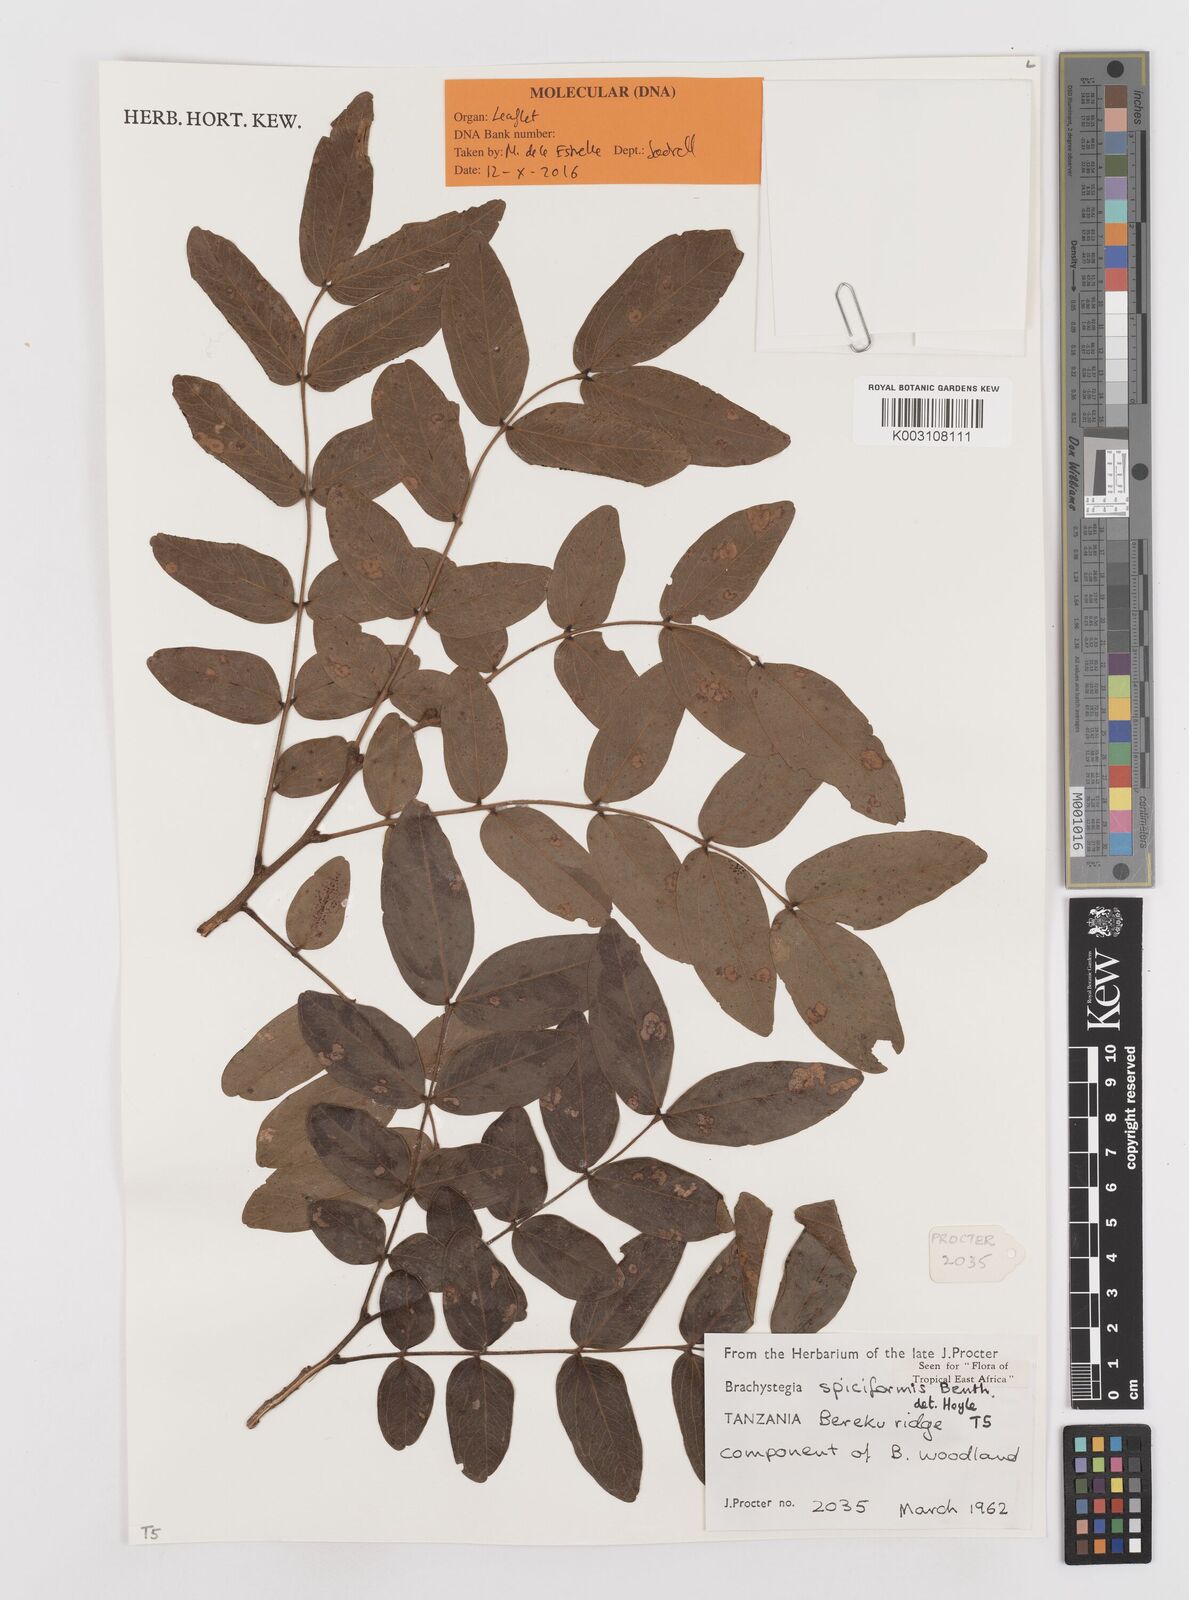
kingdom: Plantae
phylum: Tracheophyta
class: Magnoliopsida
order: Fabales
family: Fabaceae
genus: Brachystegia
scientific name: Brachystegia spiciformis
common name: Zebrawood
